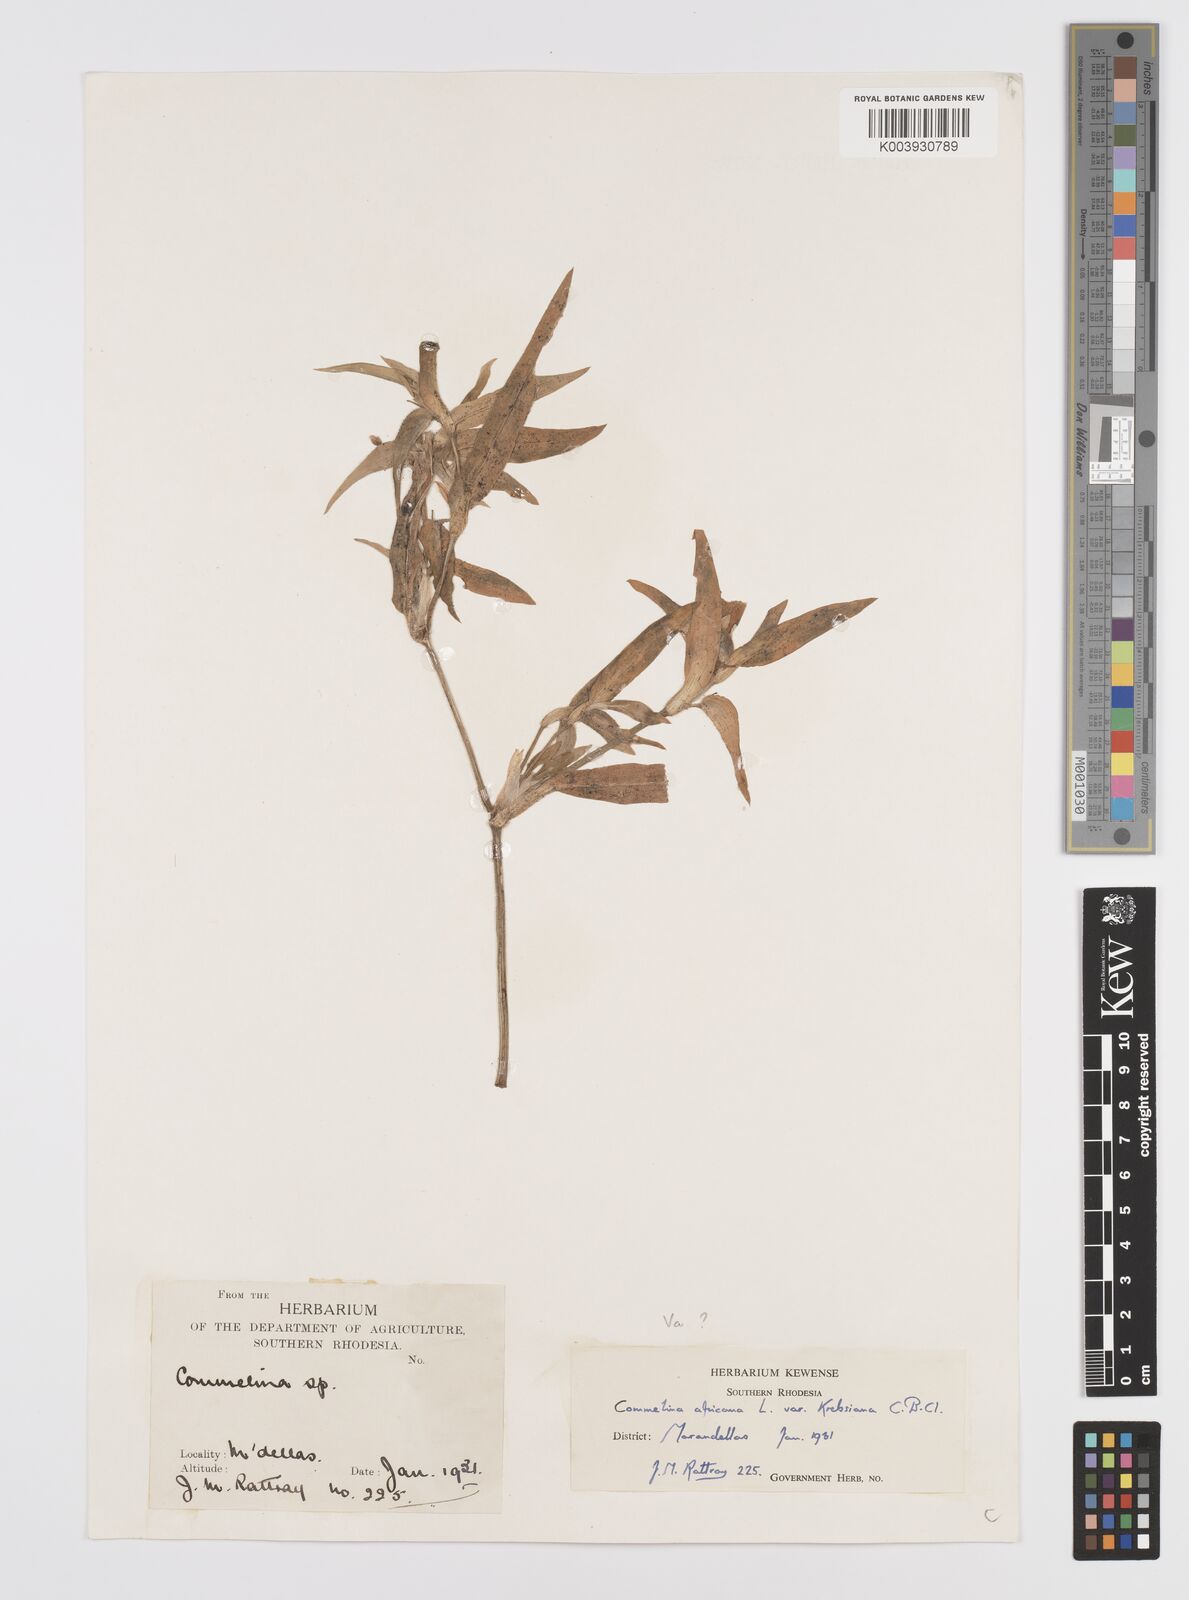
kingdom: Plantae
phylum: Tracheophyta
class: Liliopsida
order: Commelinales
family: Commelinaceae
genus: Commelina
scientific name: Commelina africana
